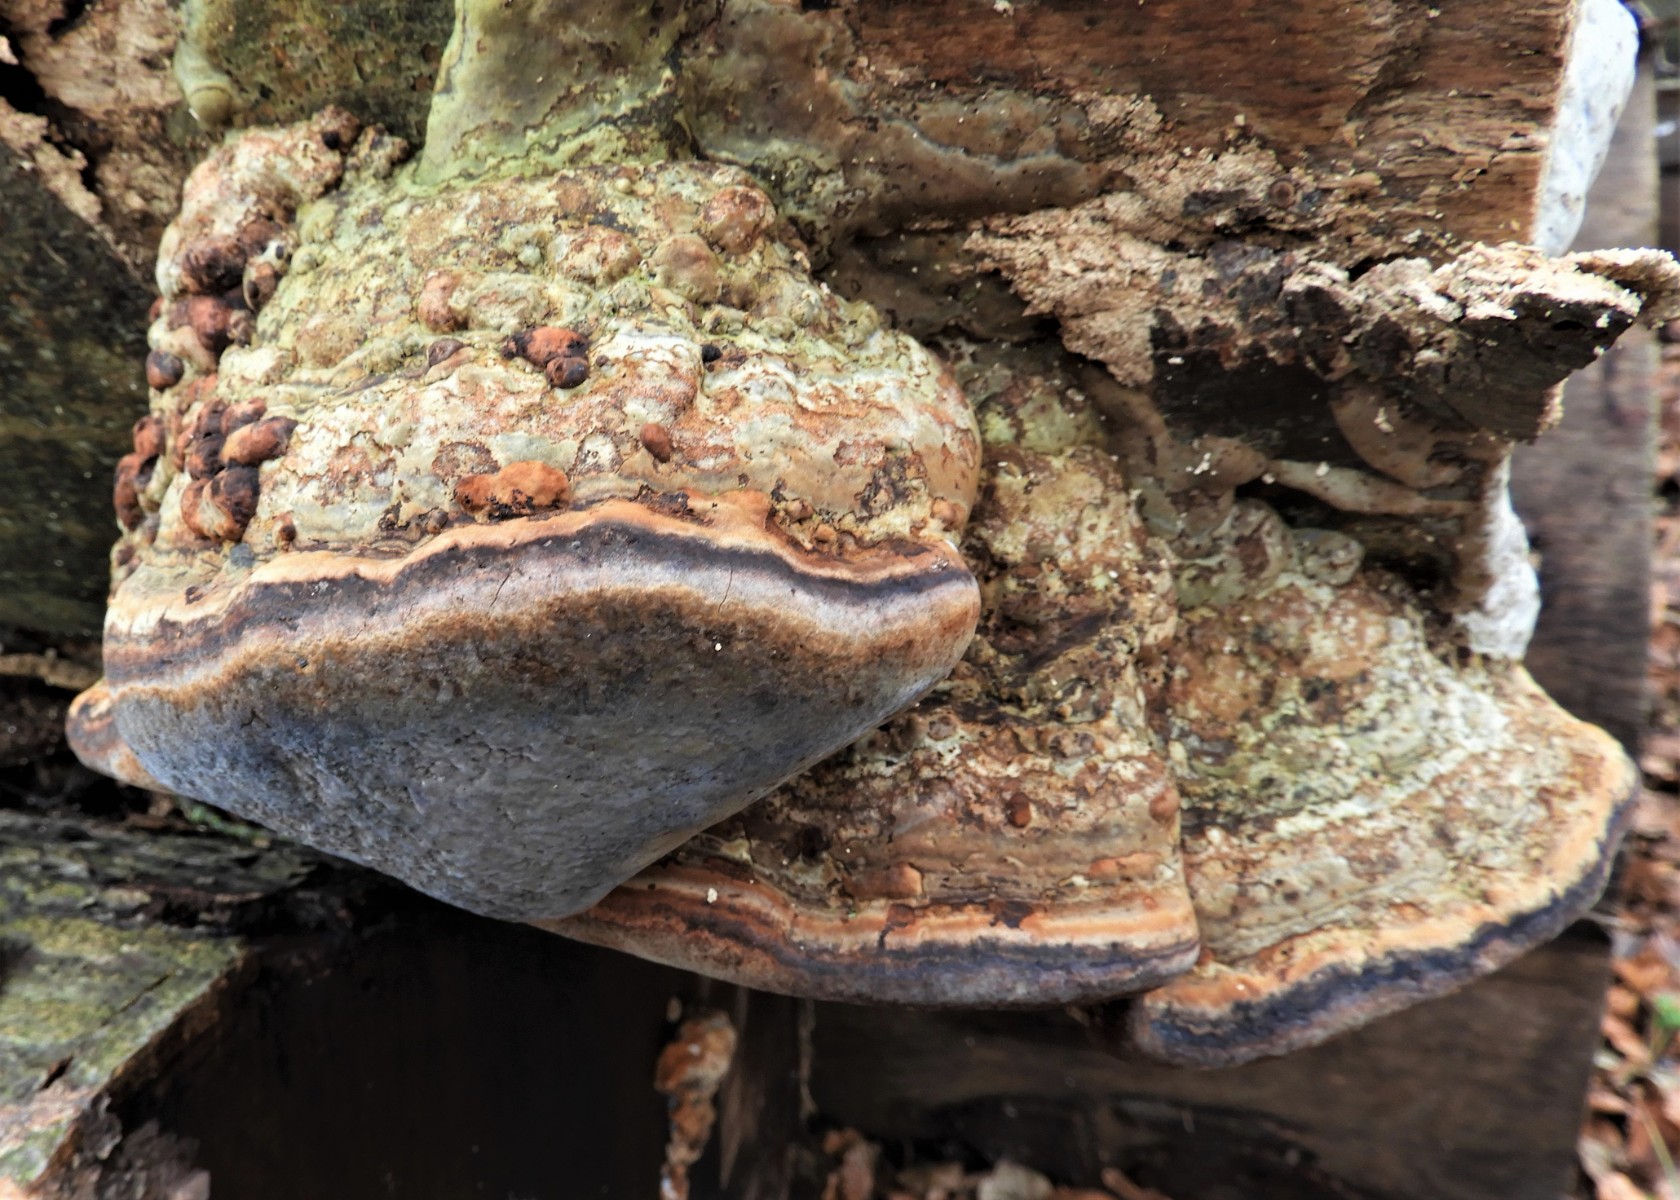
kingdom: Fungi
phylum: Basidiomycota
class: Agaricomycetes
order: Polyporales
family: Polyporaceae
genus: Fomes
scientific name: Fomes fomentarius
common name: tøndersvamp
